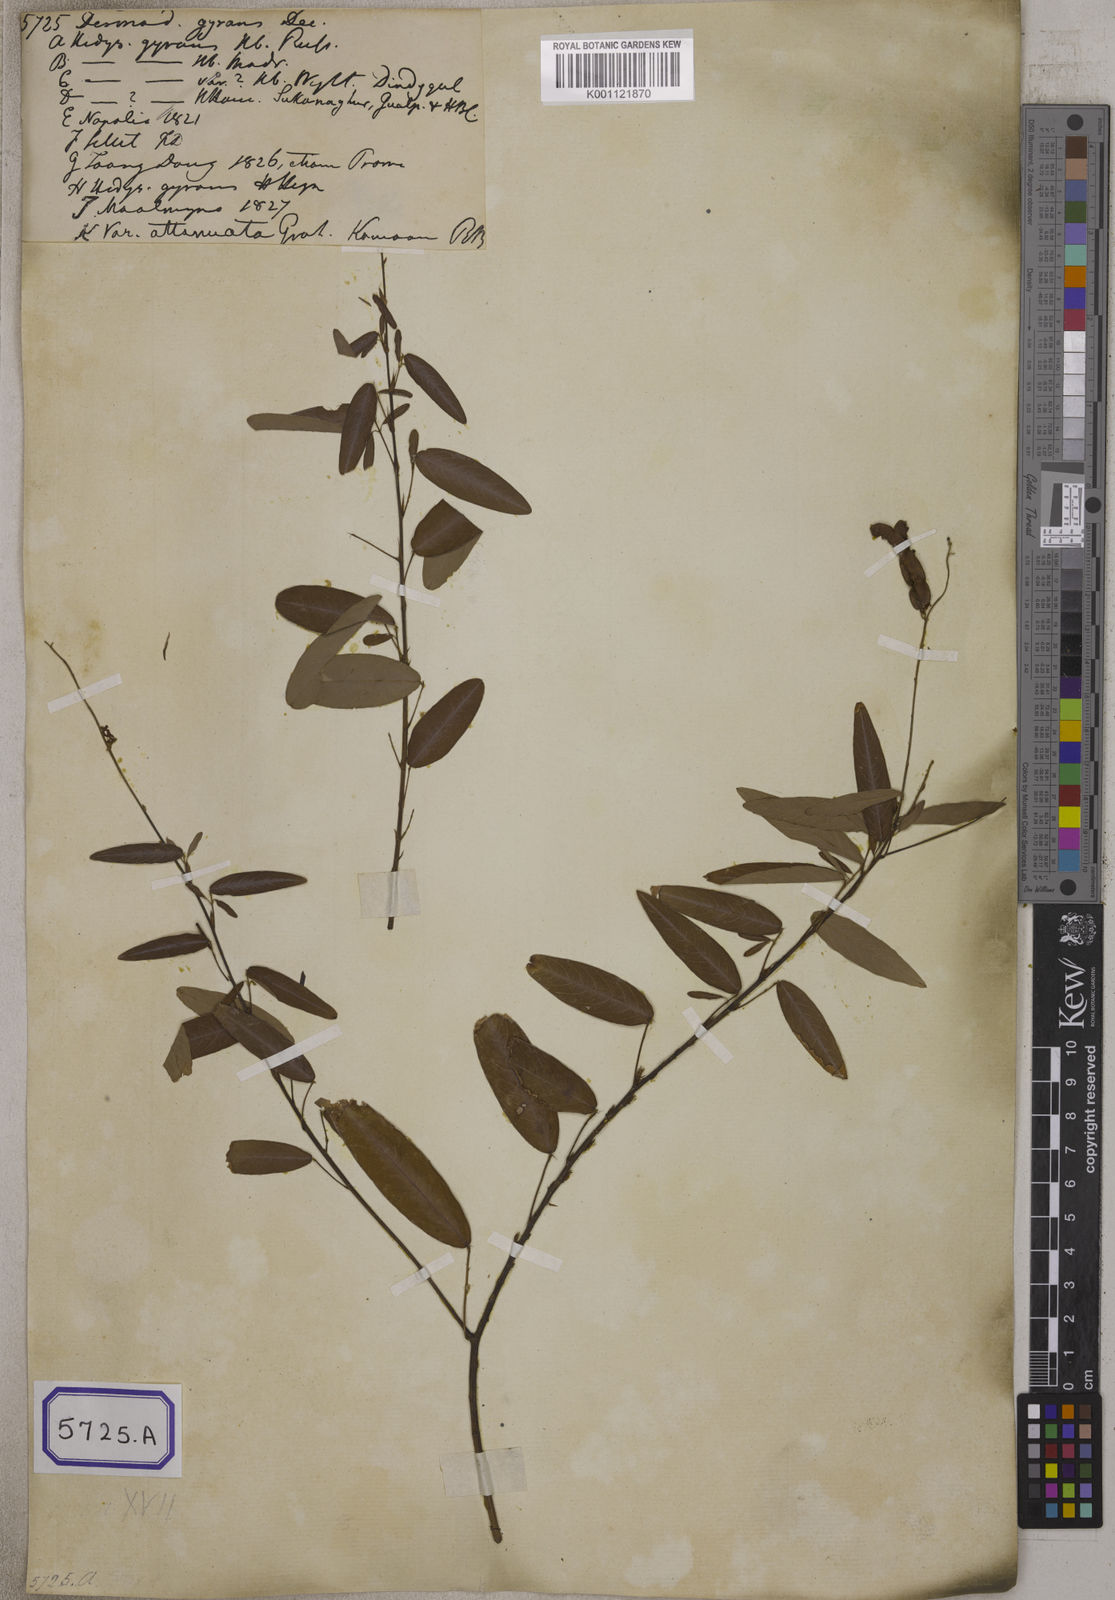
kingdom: Plantae
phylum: Tracheophyta
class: Magnoliopsida
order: Fabales
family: Fabaceae
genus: Codariocalyx
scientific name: Codariocalyx motorius
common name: Telegraph-plant
